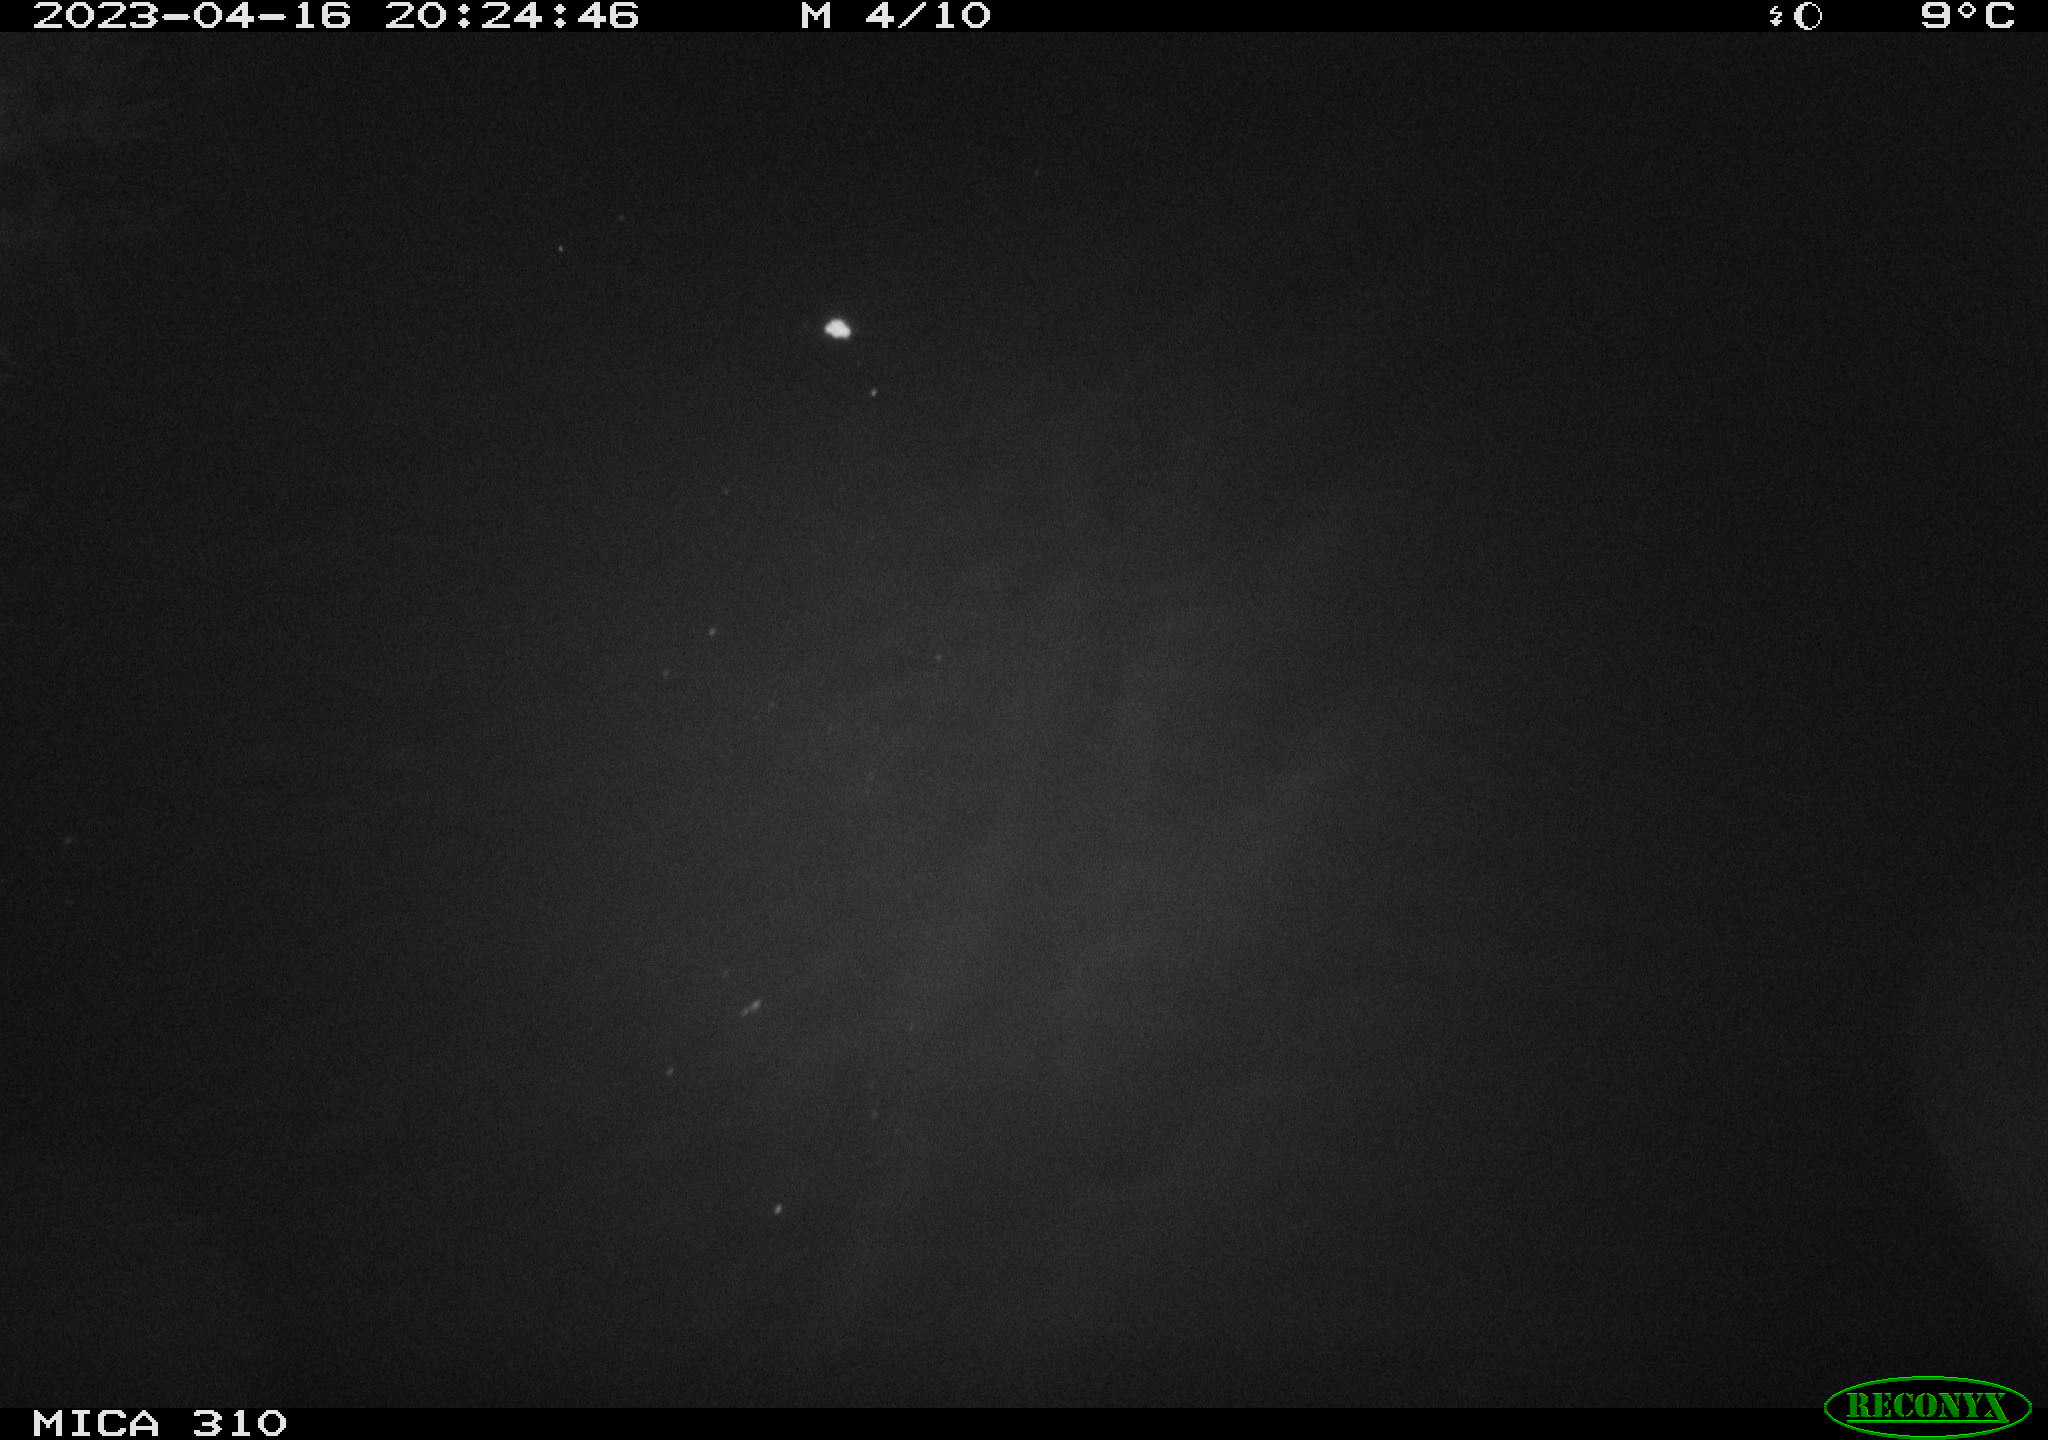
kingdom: Animalia
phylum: Chordata
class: Mammalia
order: Rodentia
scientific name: Rodentia
